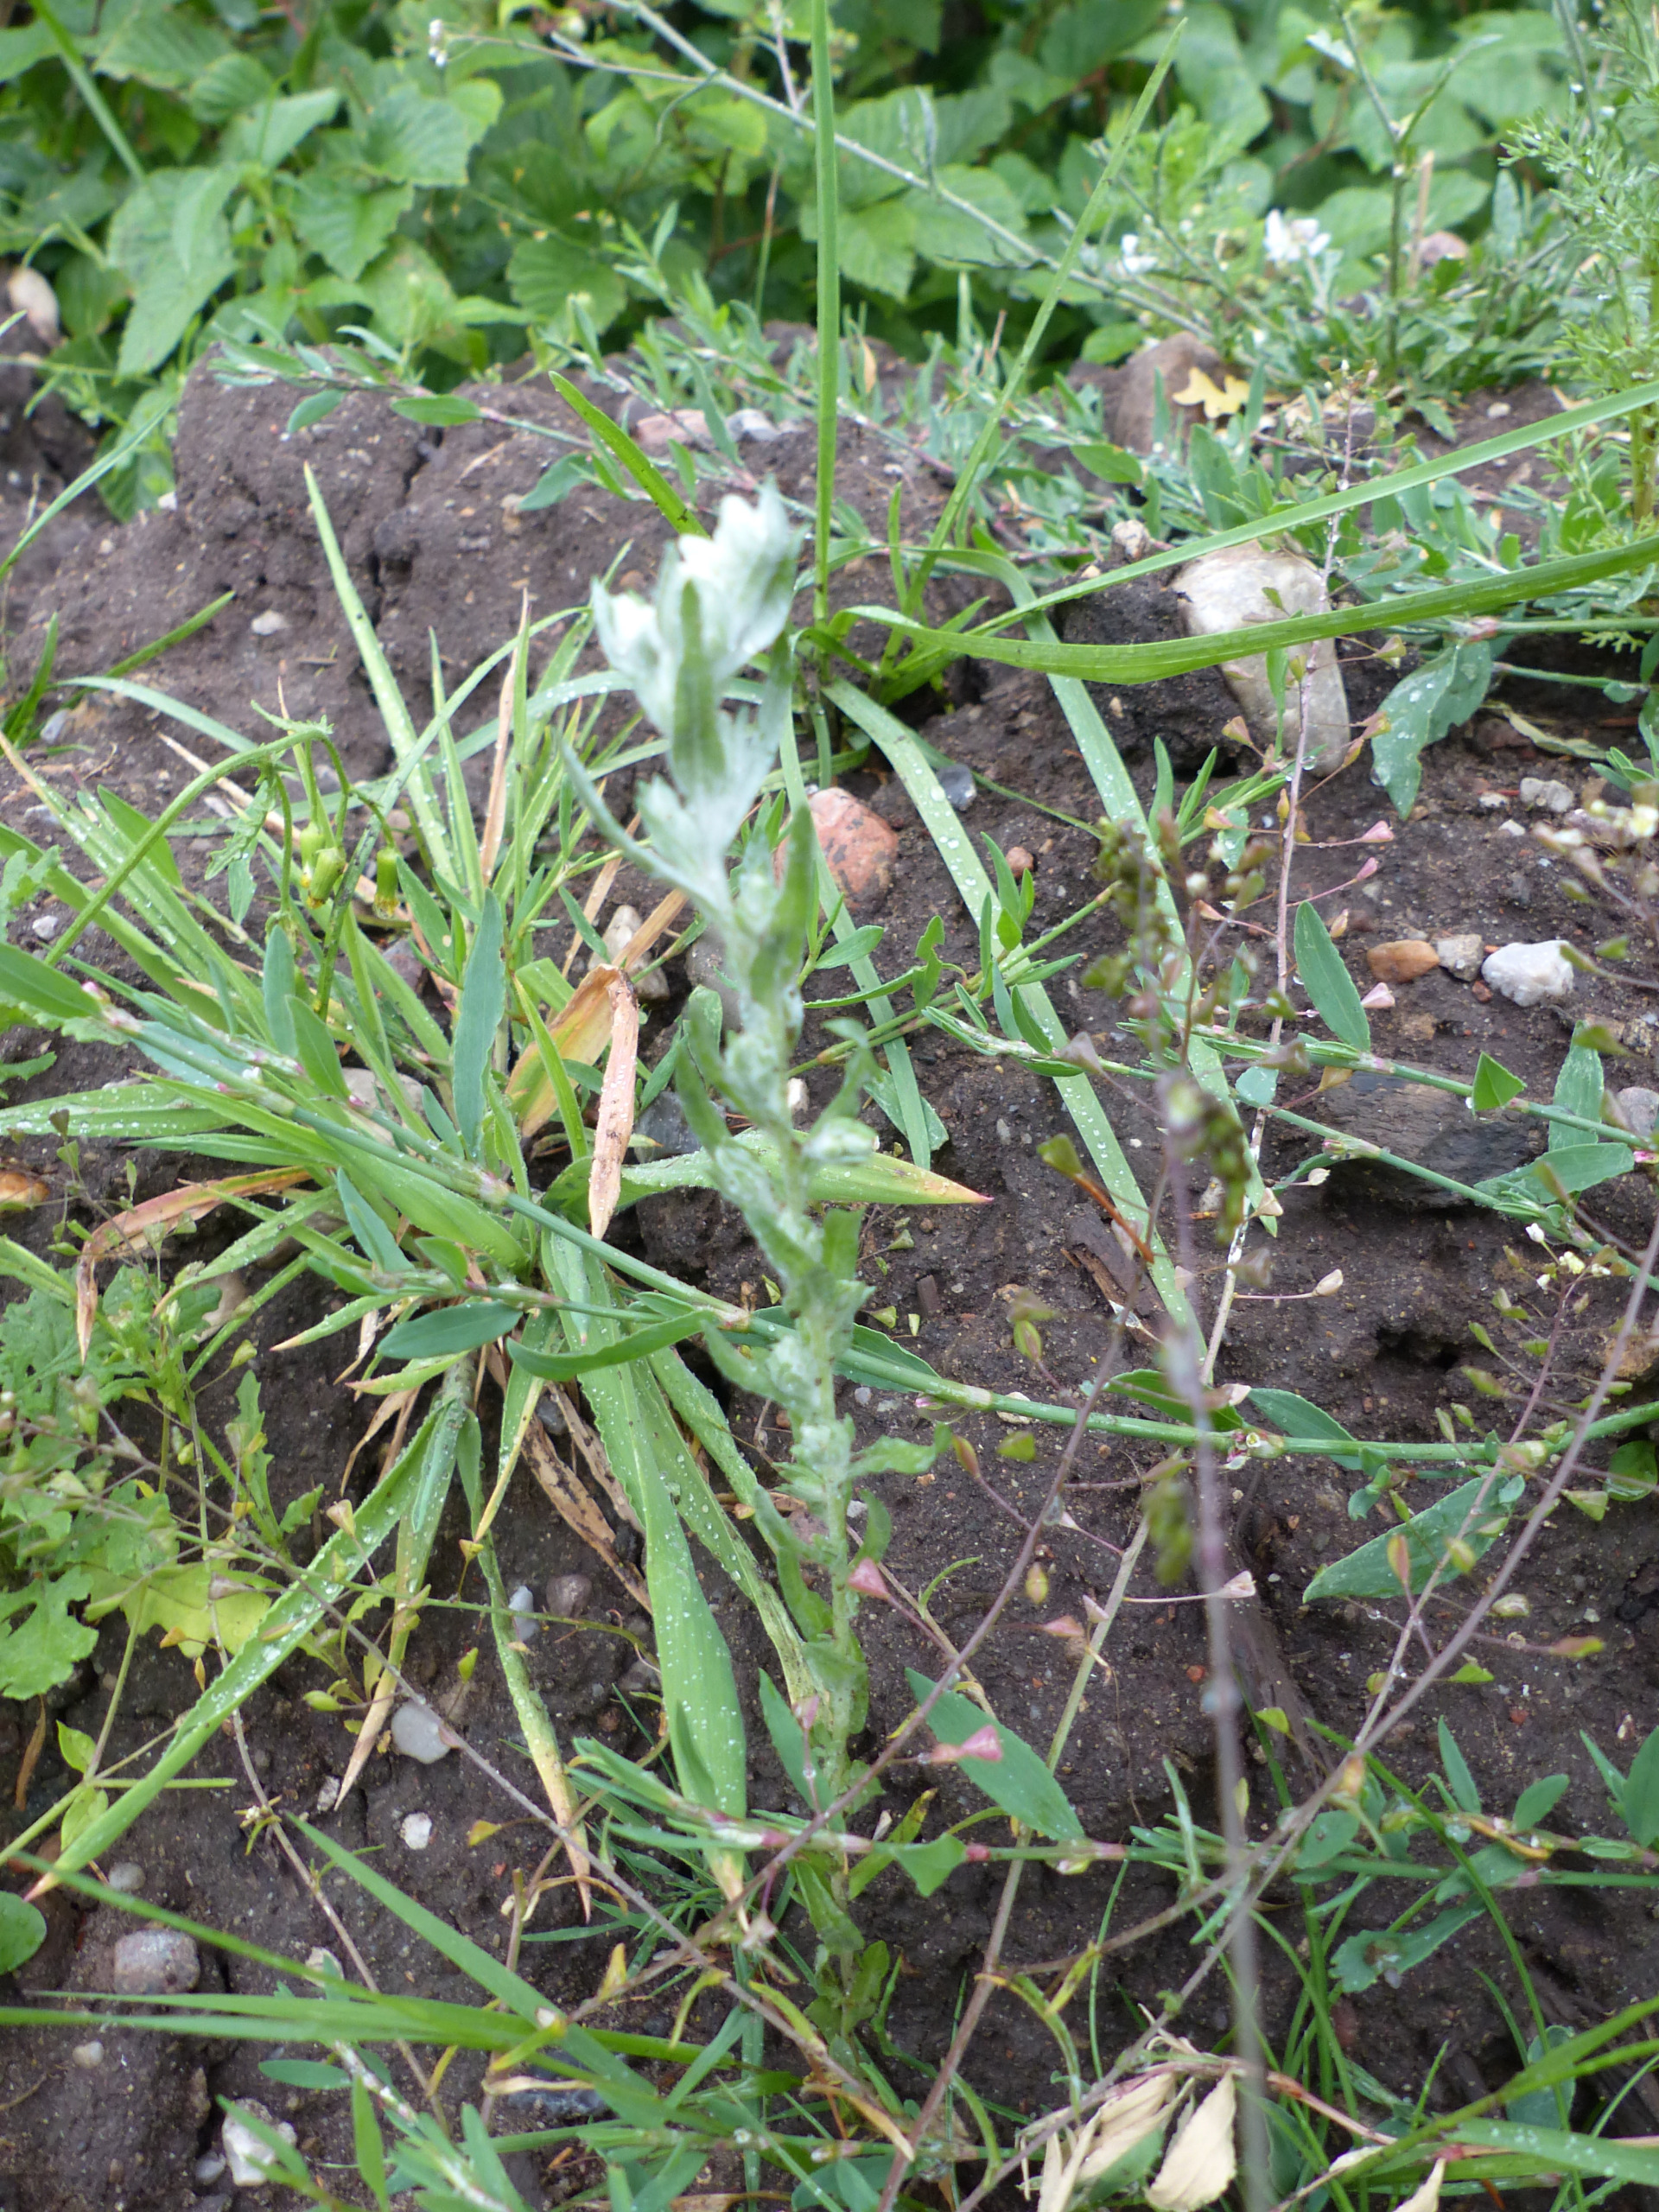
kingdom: Plantae
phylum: Tracheophyta
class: Magnoliopsida
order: Asterales
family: Asteraceae
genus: Filago
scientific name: Filago arvensis
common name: Ager-museurt
